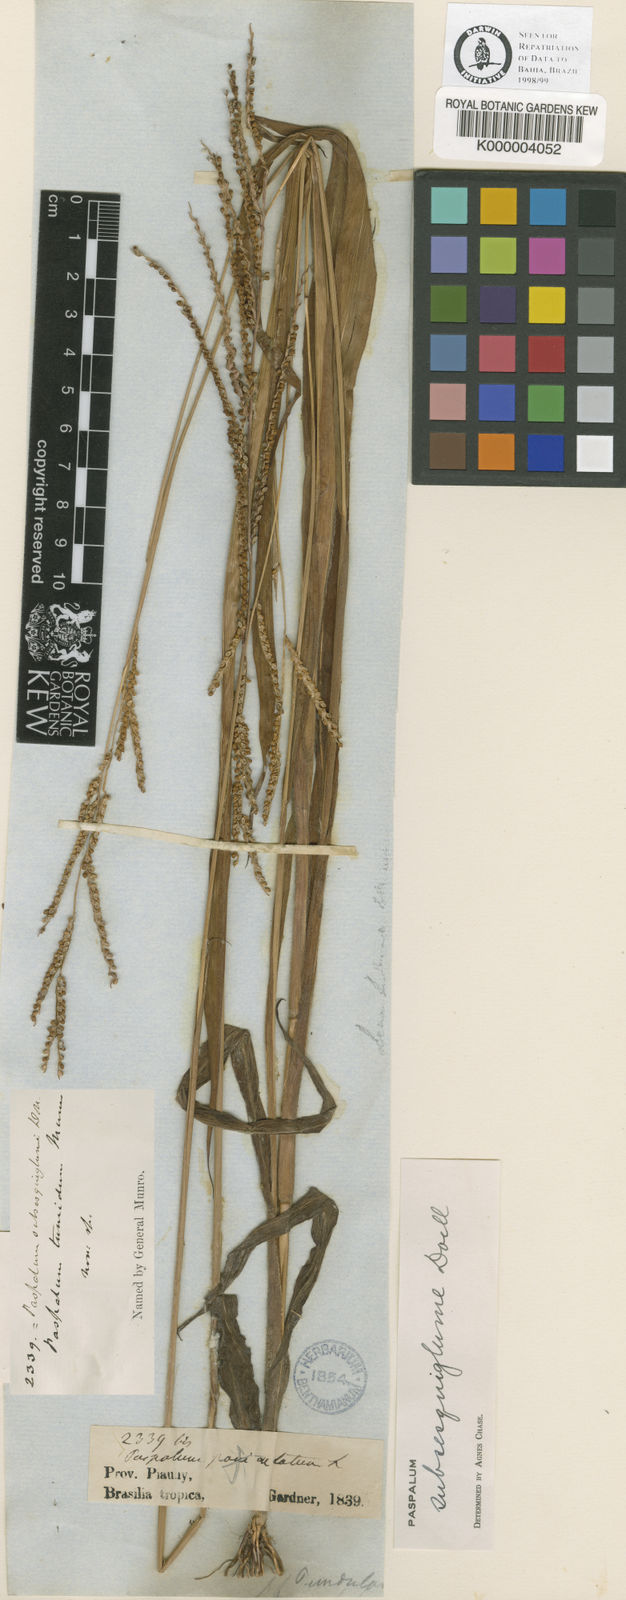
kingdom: Plantae
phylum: Tracheophyta
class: Liliopsida
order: Poales
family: Poaceae
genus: Paspalum
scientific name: Paspalum
